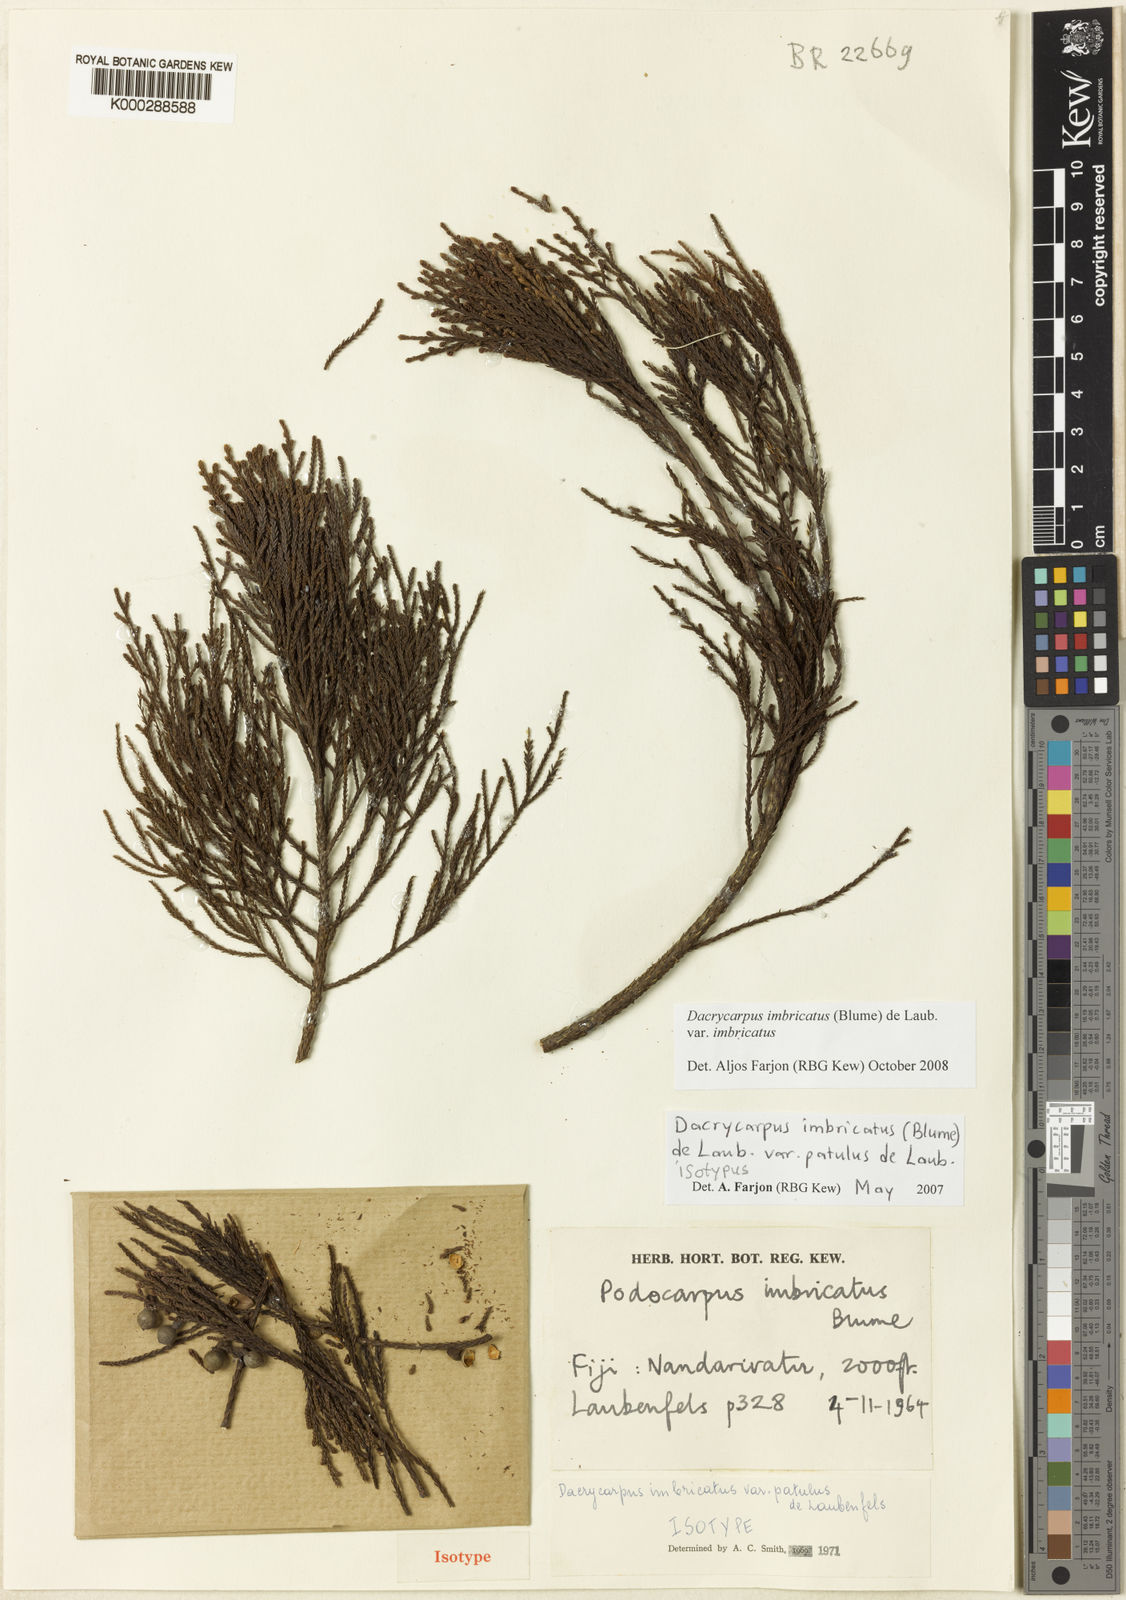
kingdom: Plantae
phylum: Tracheophyta
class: Pinopsida
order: Pinales
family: Podocarpaceae
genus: Dacrycarpus
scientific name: Dacrycarpus imbricatus
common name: Pine
